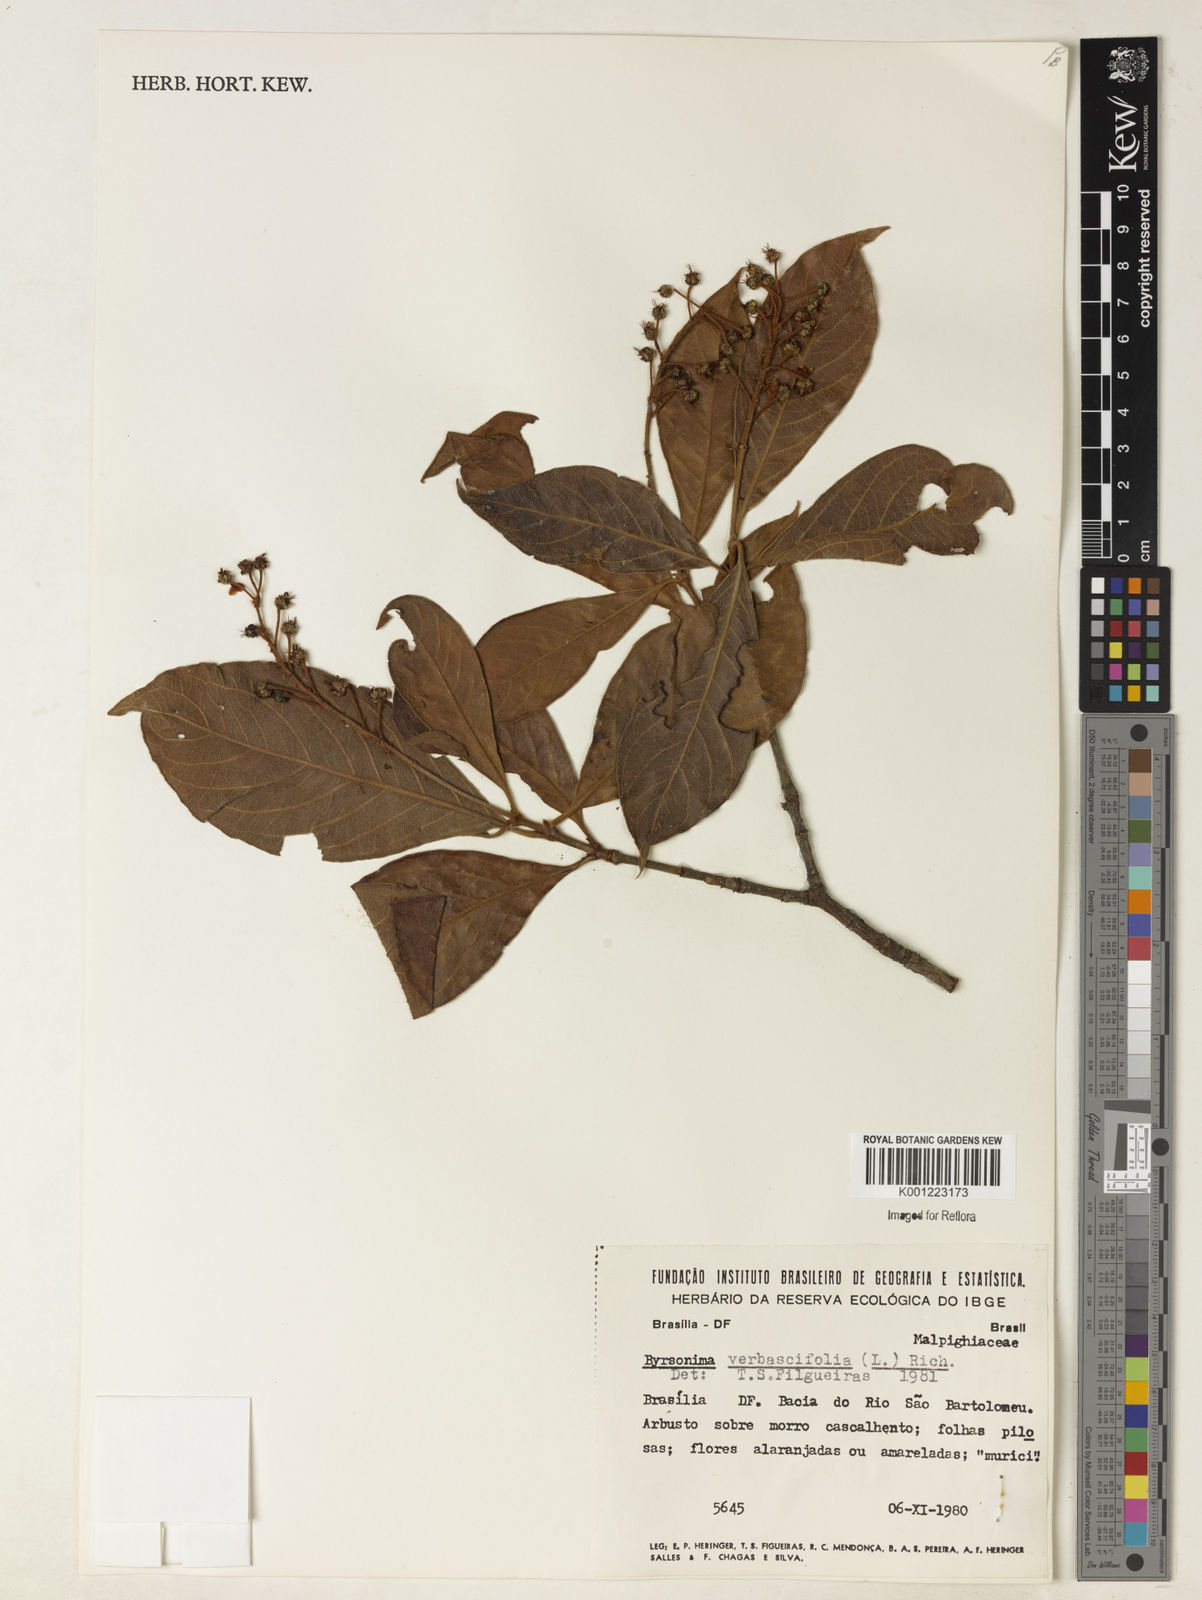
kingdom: Plantae
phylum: Tracheophyta
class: Magnoliopsida
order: Malpighiales
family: Malpighiaceae
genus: Byrsonima
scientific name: Byrsonima
